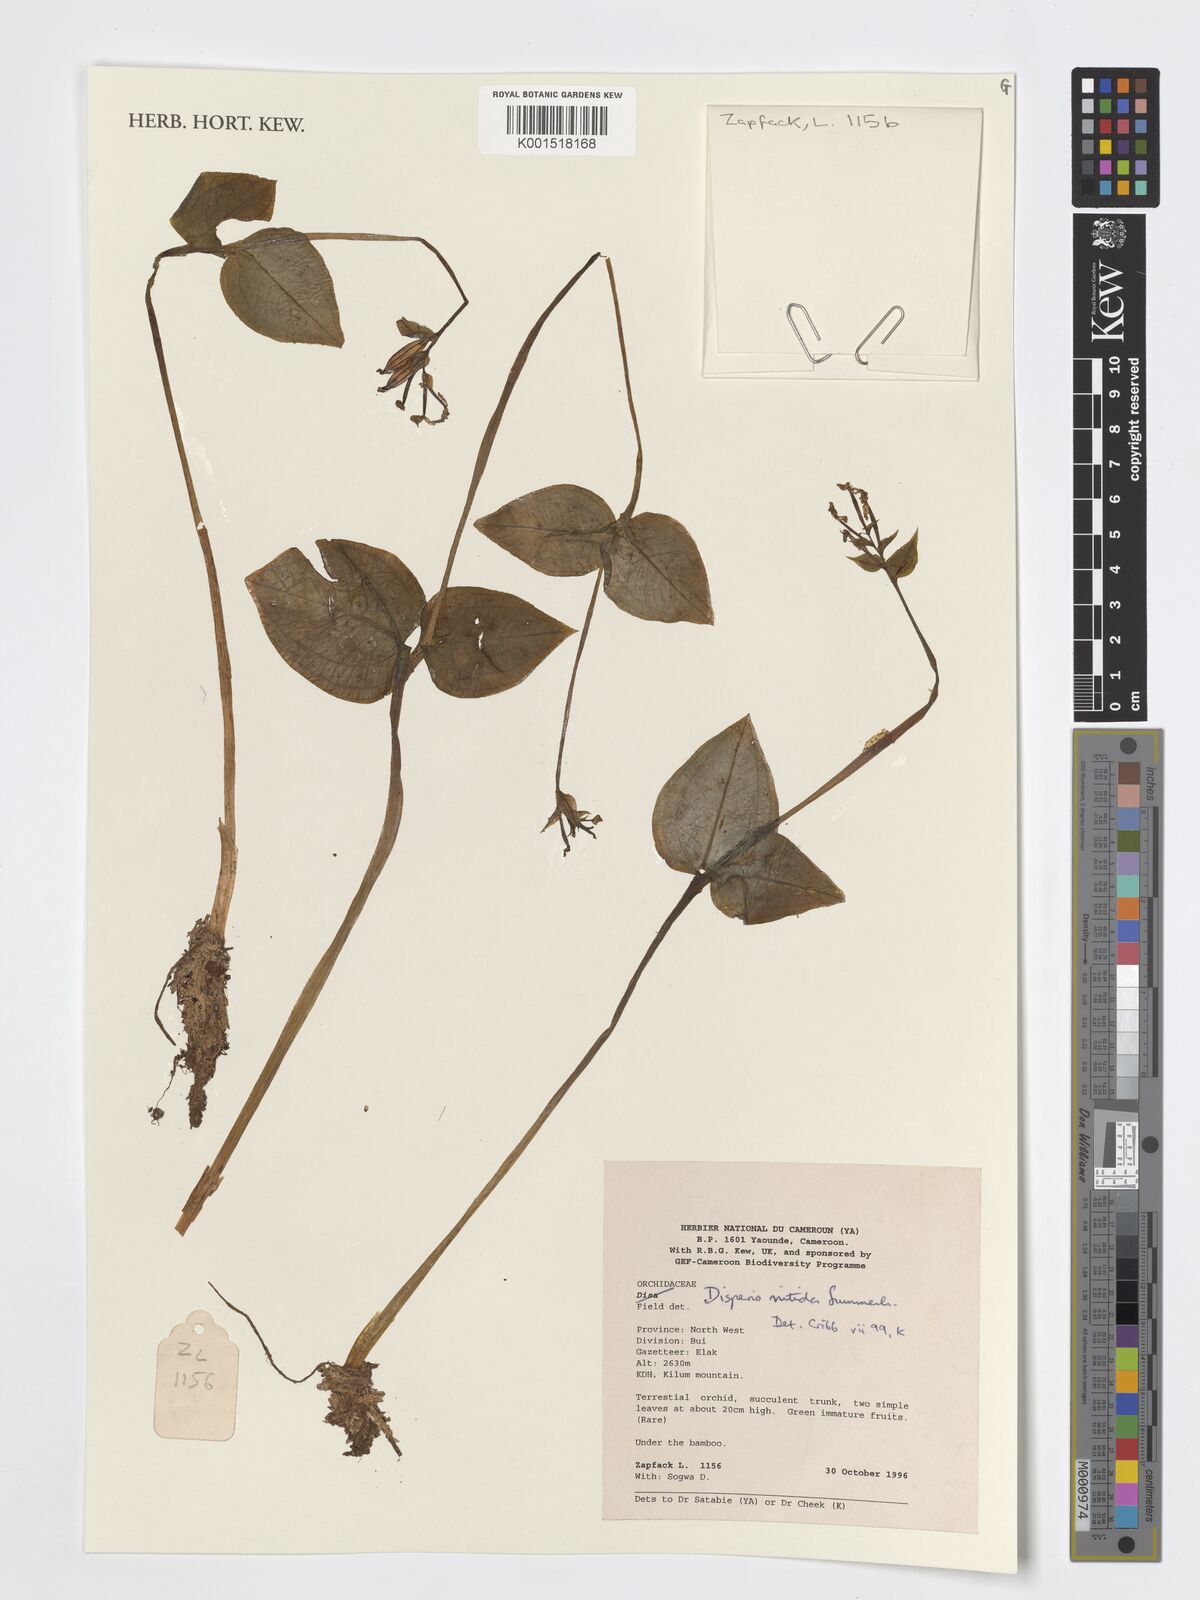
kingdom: Plantae
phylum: Tracheophyta
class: Liliopsida
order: Asparagales
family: Orchidaceae
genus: Disperis
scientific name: Disperis nitida
